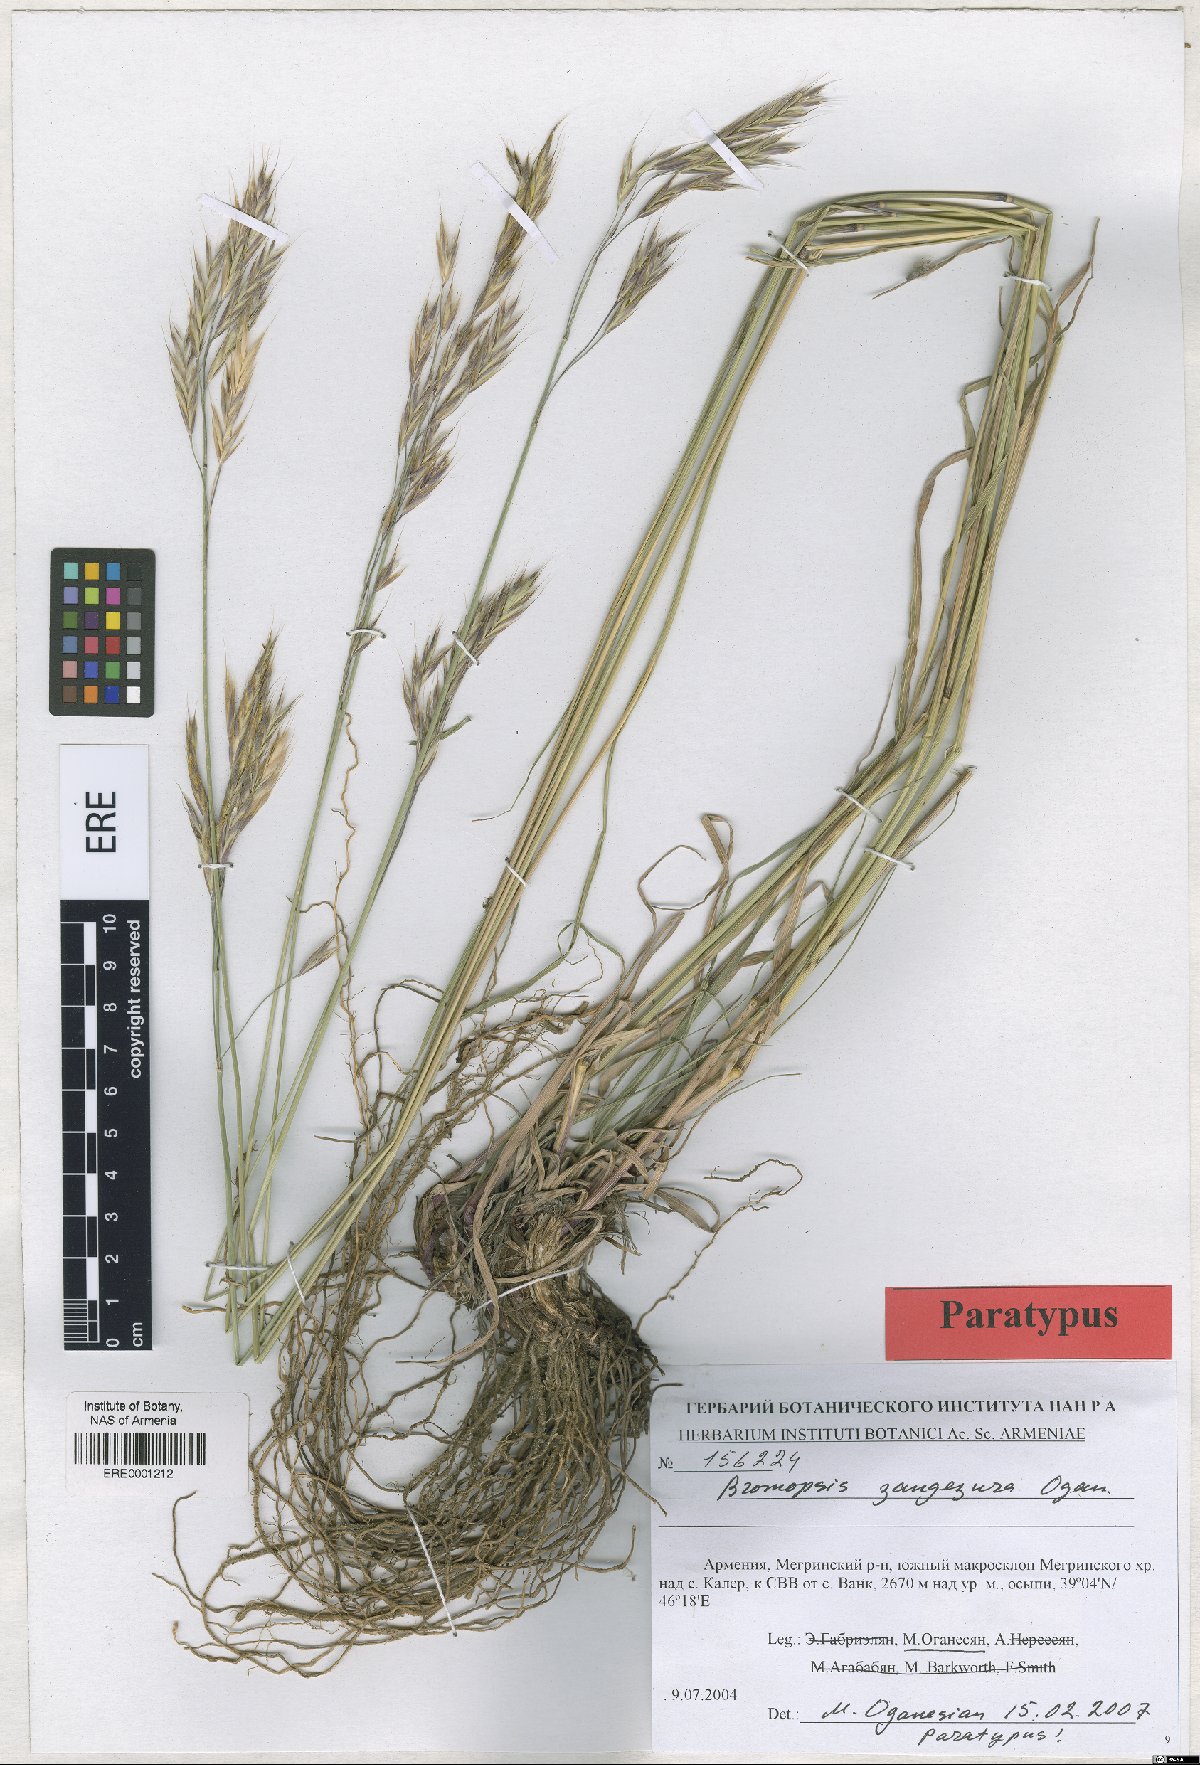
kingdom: Plantae
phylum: Tracheophyta
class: Liliopsida
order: Poales
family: Poaceae
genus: Bromus
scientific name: Bromus erectus
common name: Erect brome
